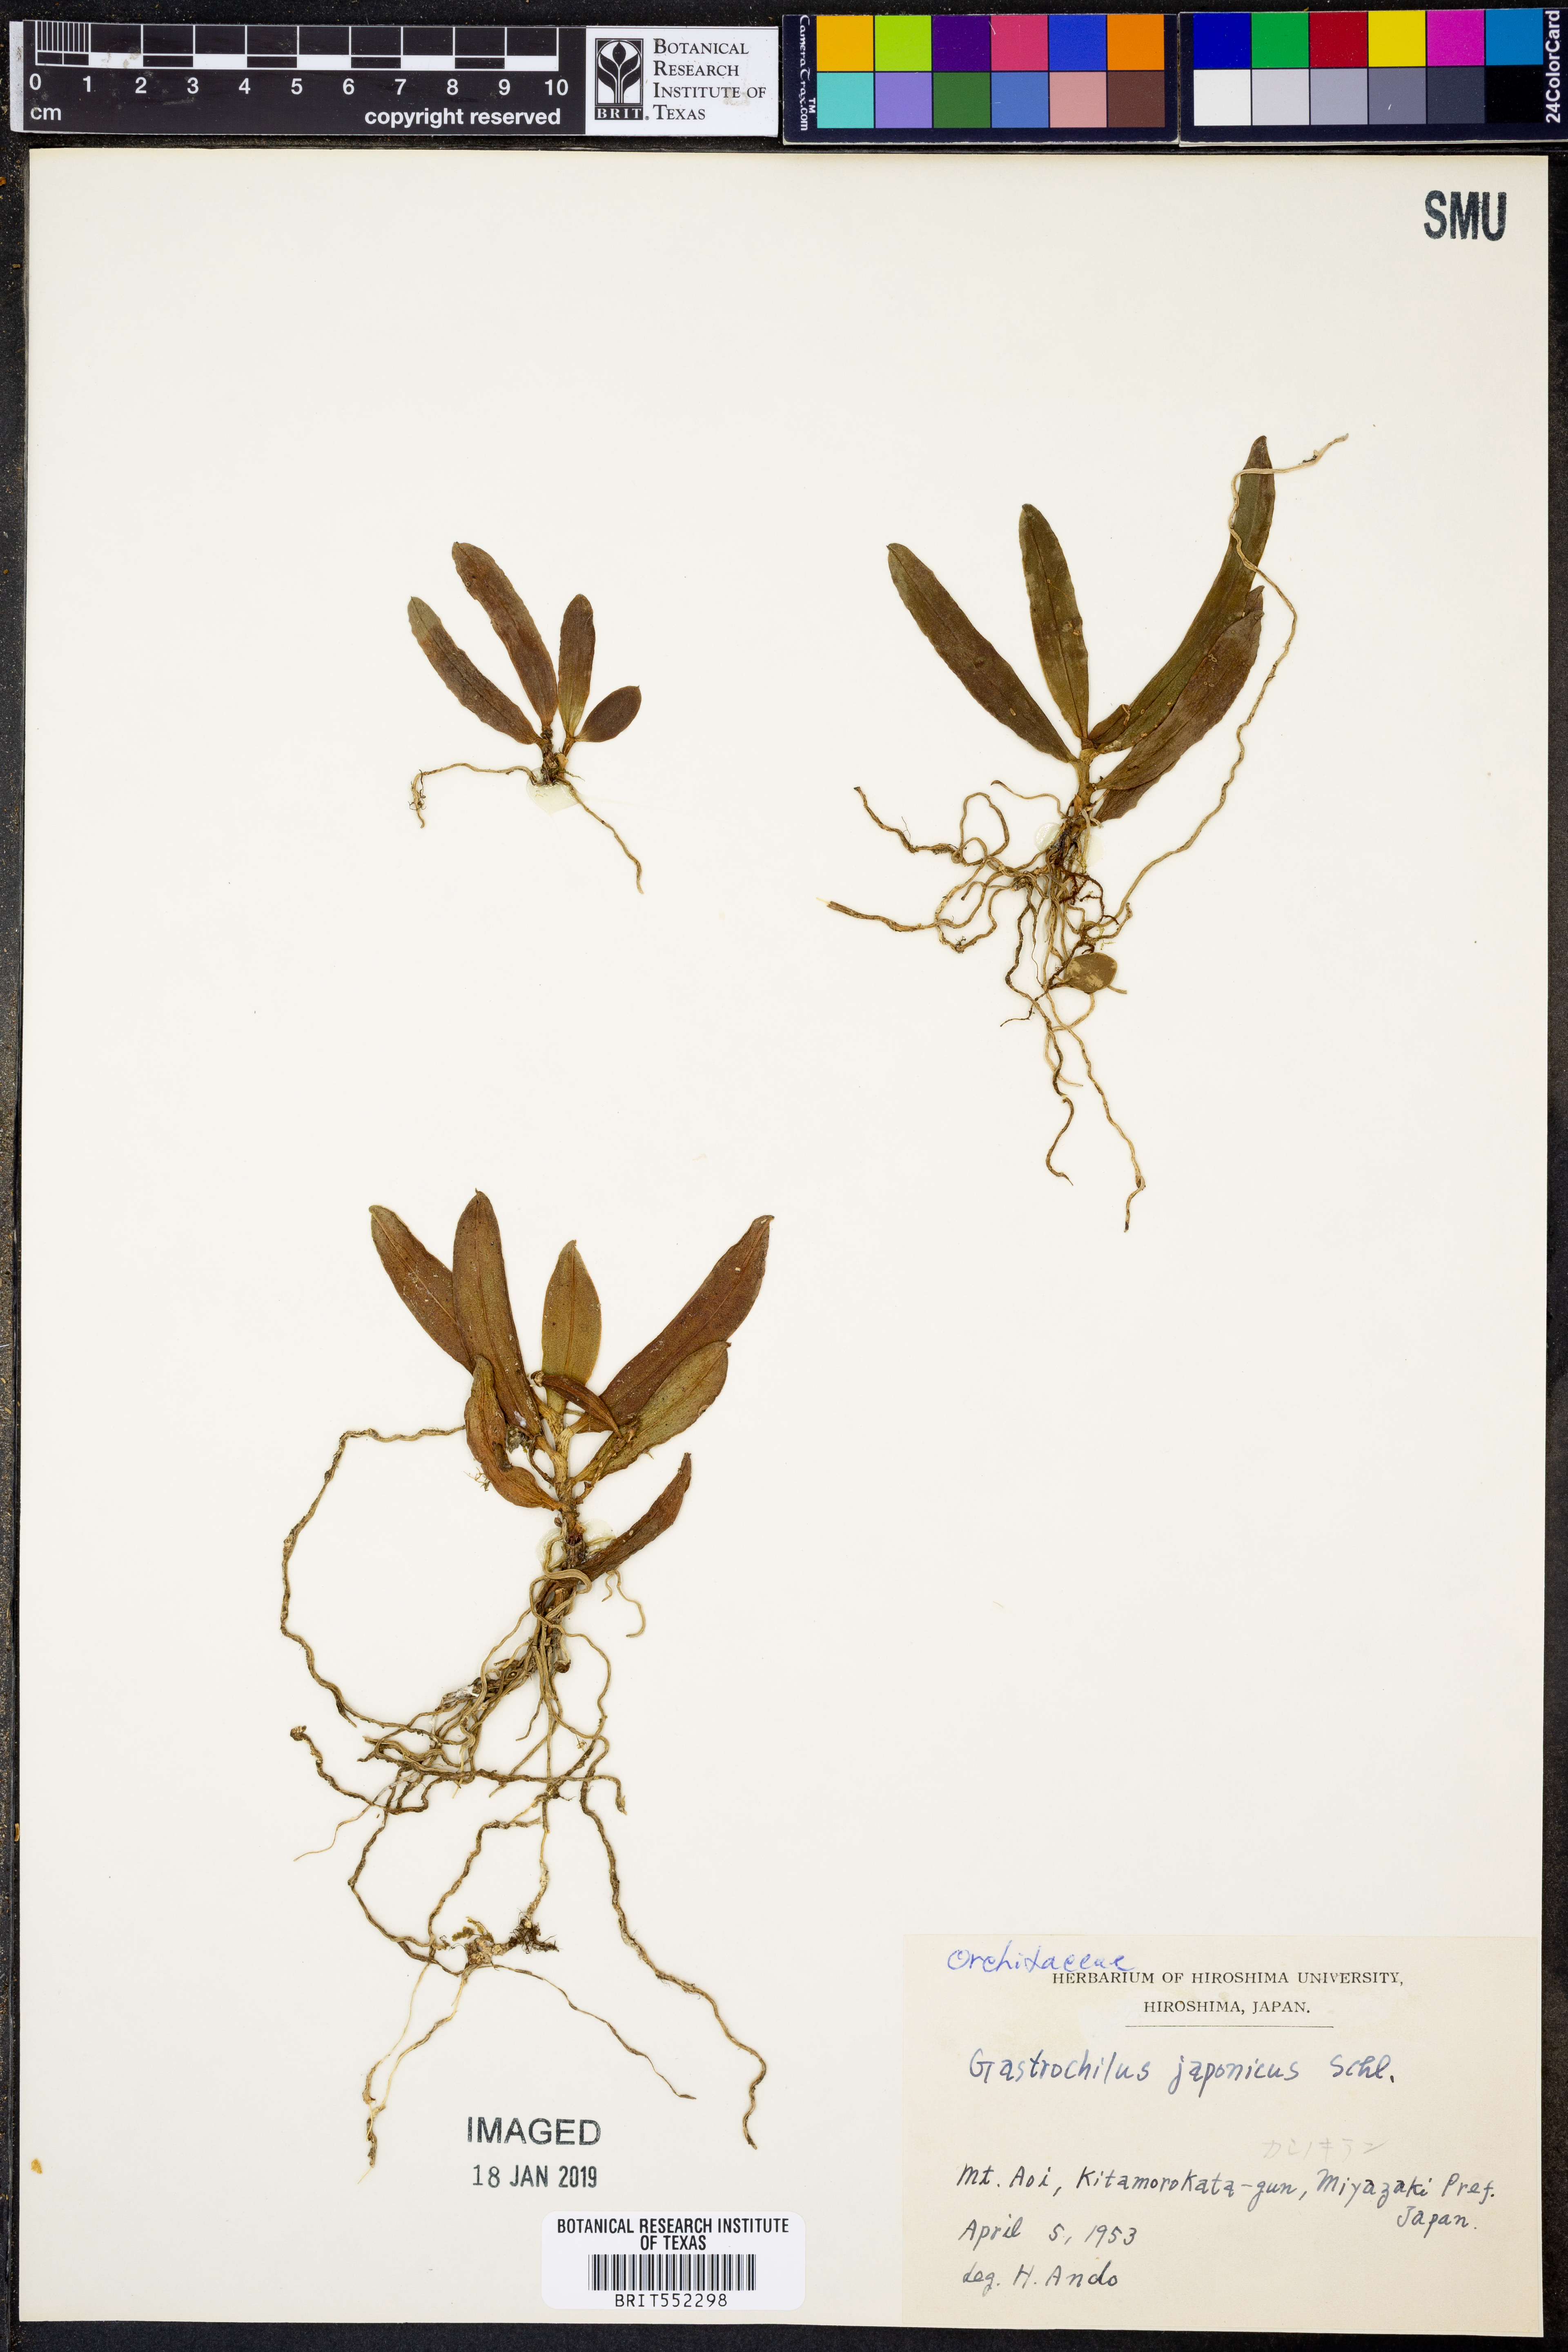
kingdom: Plantae
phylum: Tracheophyta
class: Liliopsida
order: Asparagales
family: Orchidaceae
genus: Gastrochilus
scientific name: Gastrochilus japonicus
